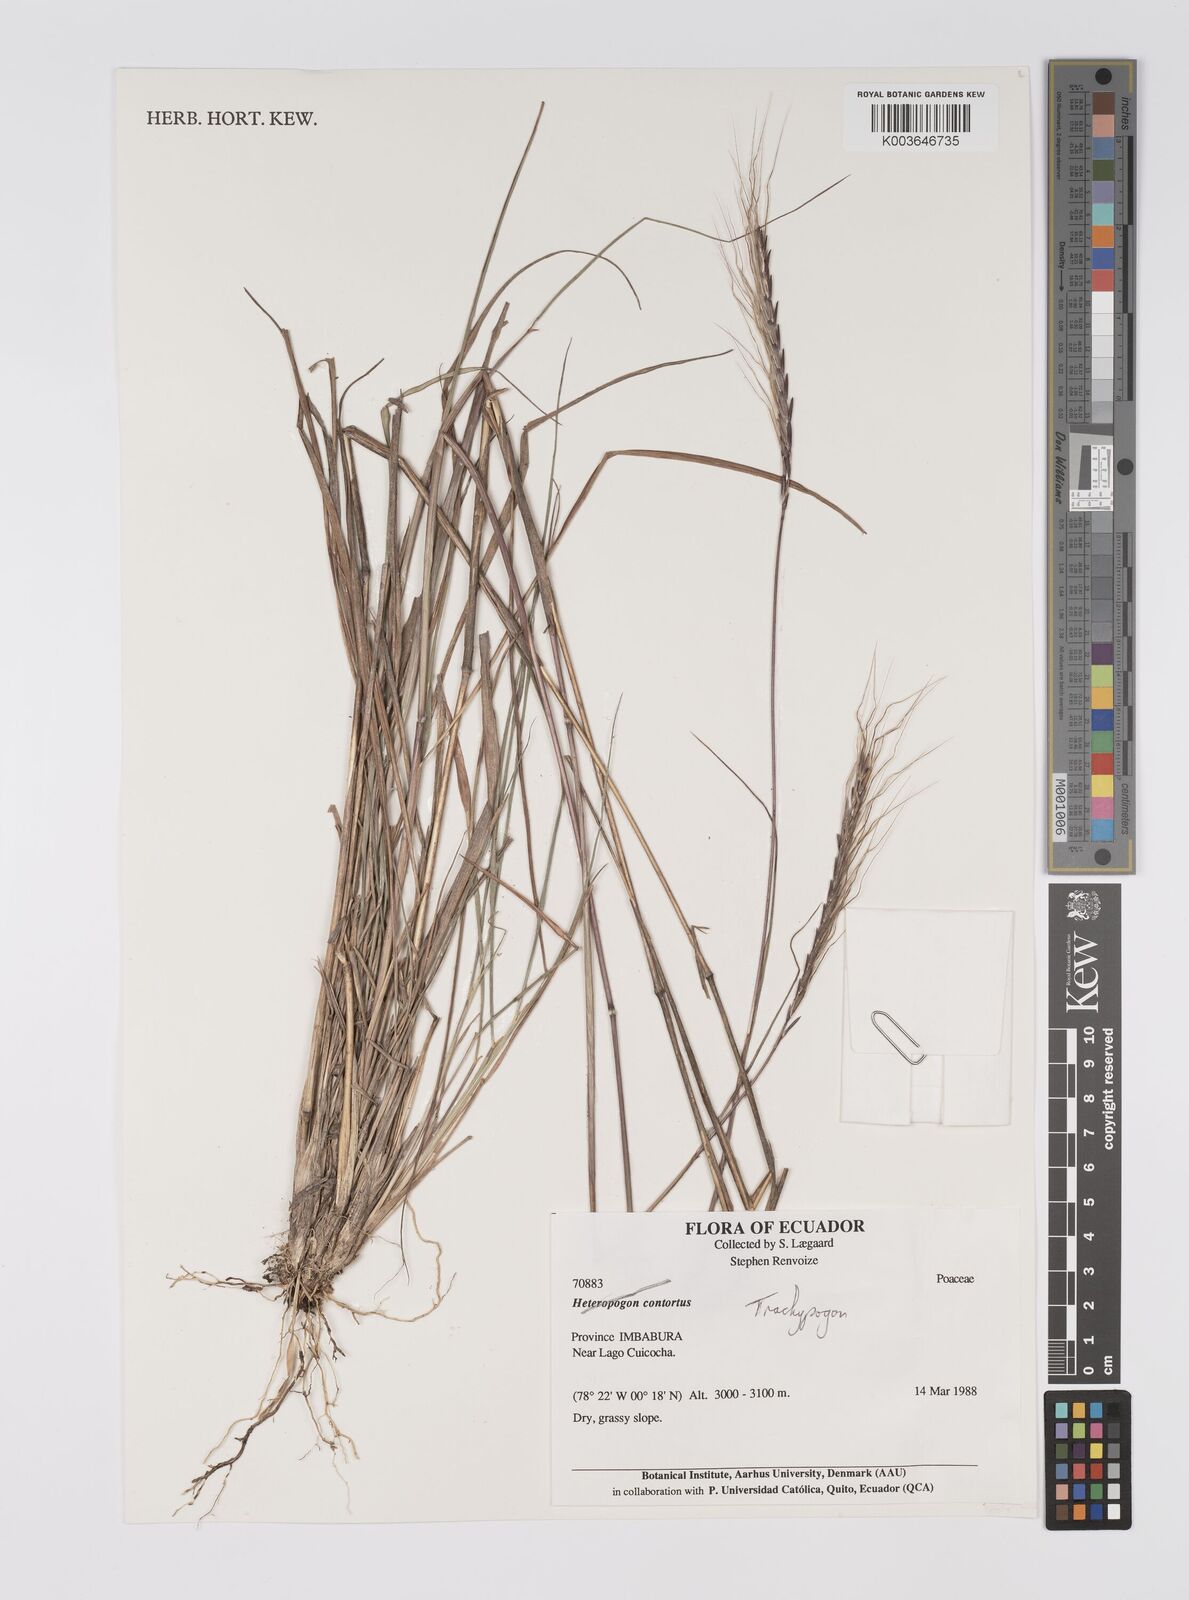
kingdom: Plantae
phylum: Tracheophyta
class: Liliopsida
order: Poales
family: Poaceae
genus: Trachypogon
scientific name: Trachypogon spicatus
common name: Crinkle-awn
